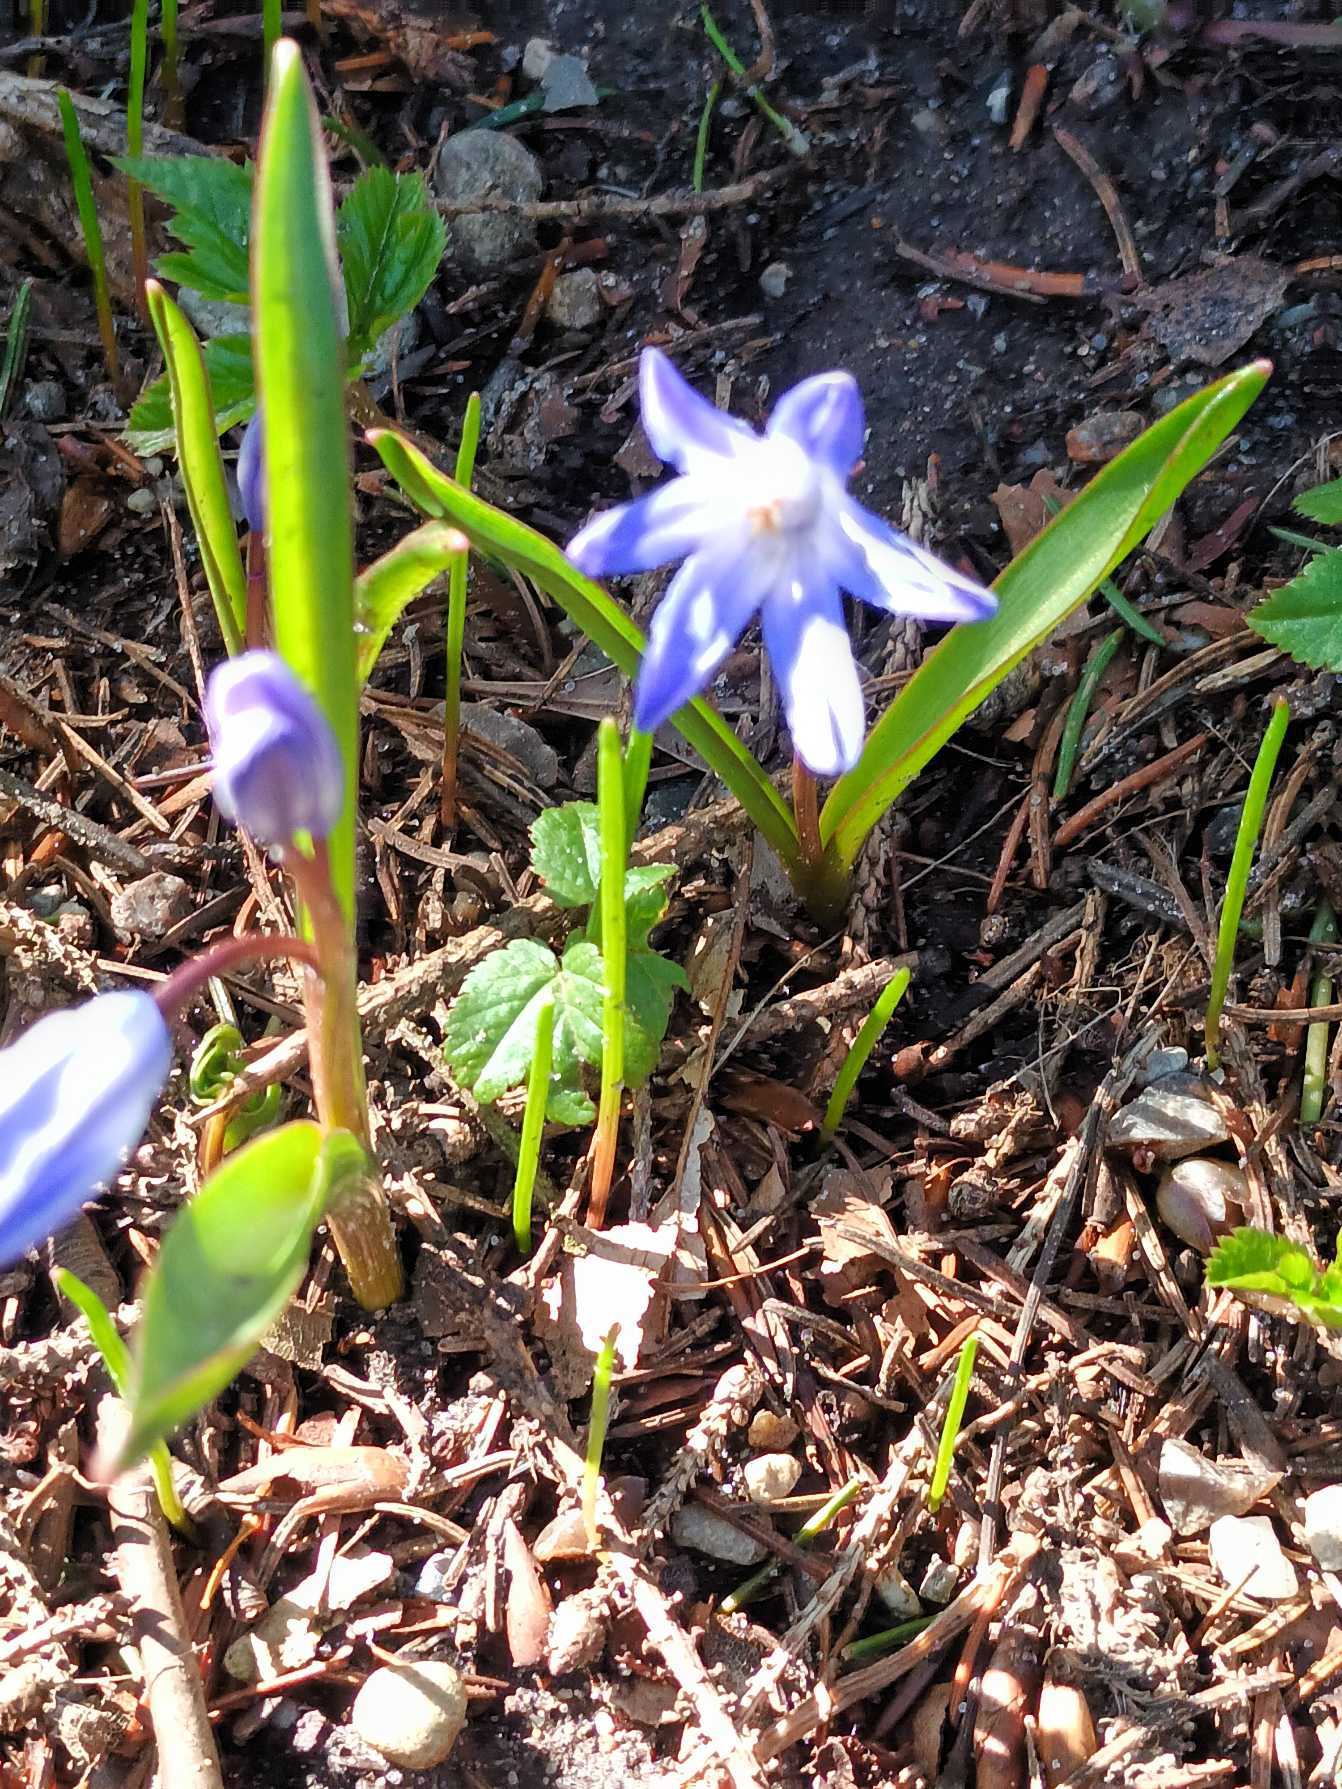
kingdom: Plantae
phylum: Tracheophyta
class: Liliopsida
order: Asparagales
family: Asparagaceae
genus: Scilla
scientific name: Scilla forbesii
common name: Almindelig snepryd
